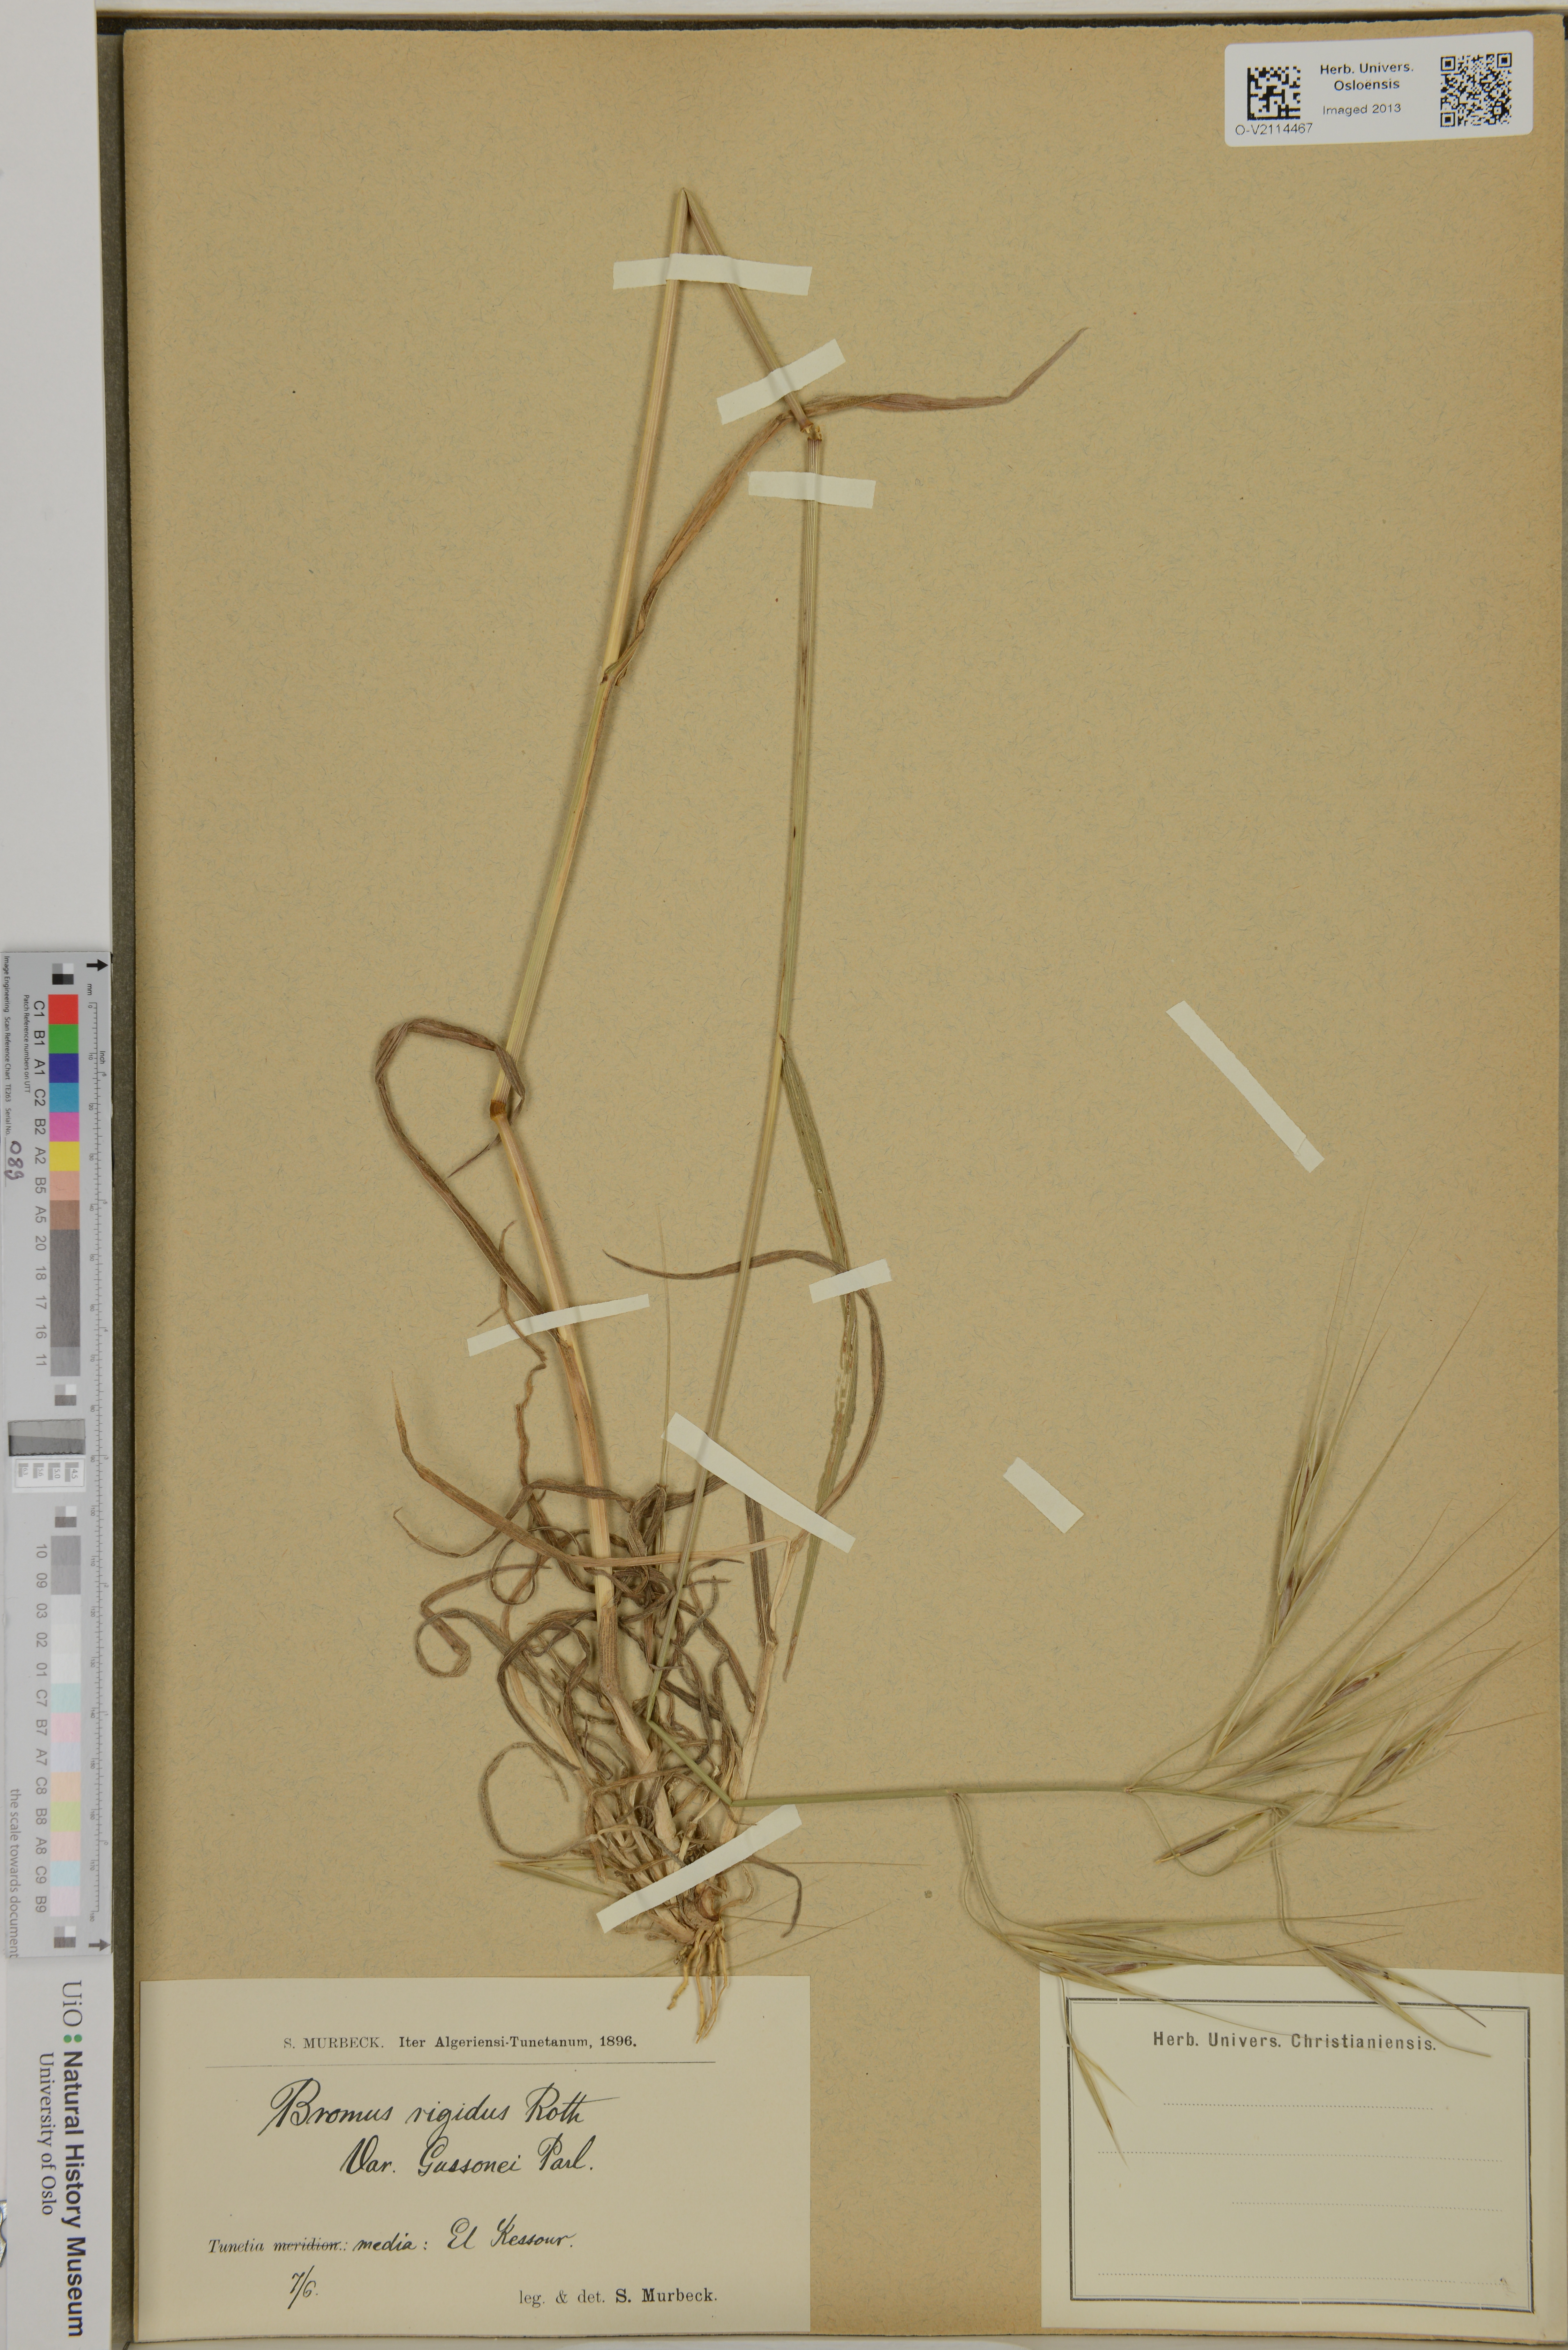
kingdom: Plantae
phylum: Tracheophyta
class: Liliopsida
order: Poales
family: Poaceae
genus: Bromus
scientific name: Bromus rigidus
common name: Ripgut brome
